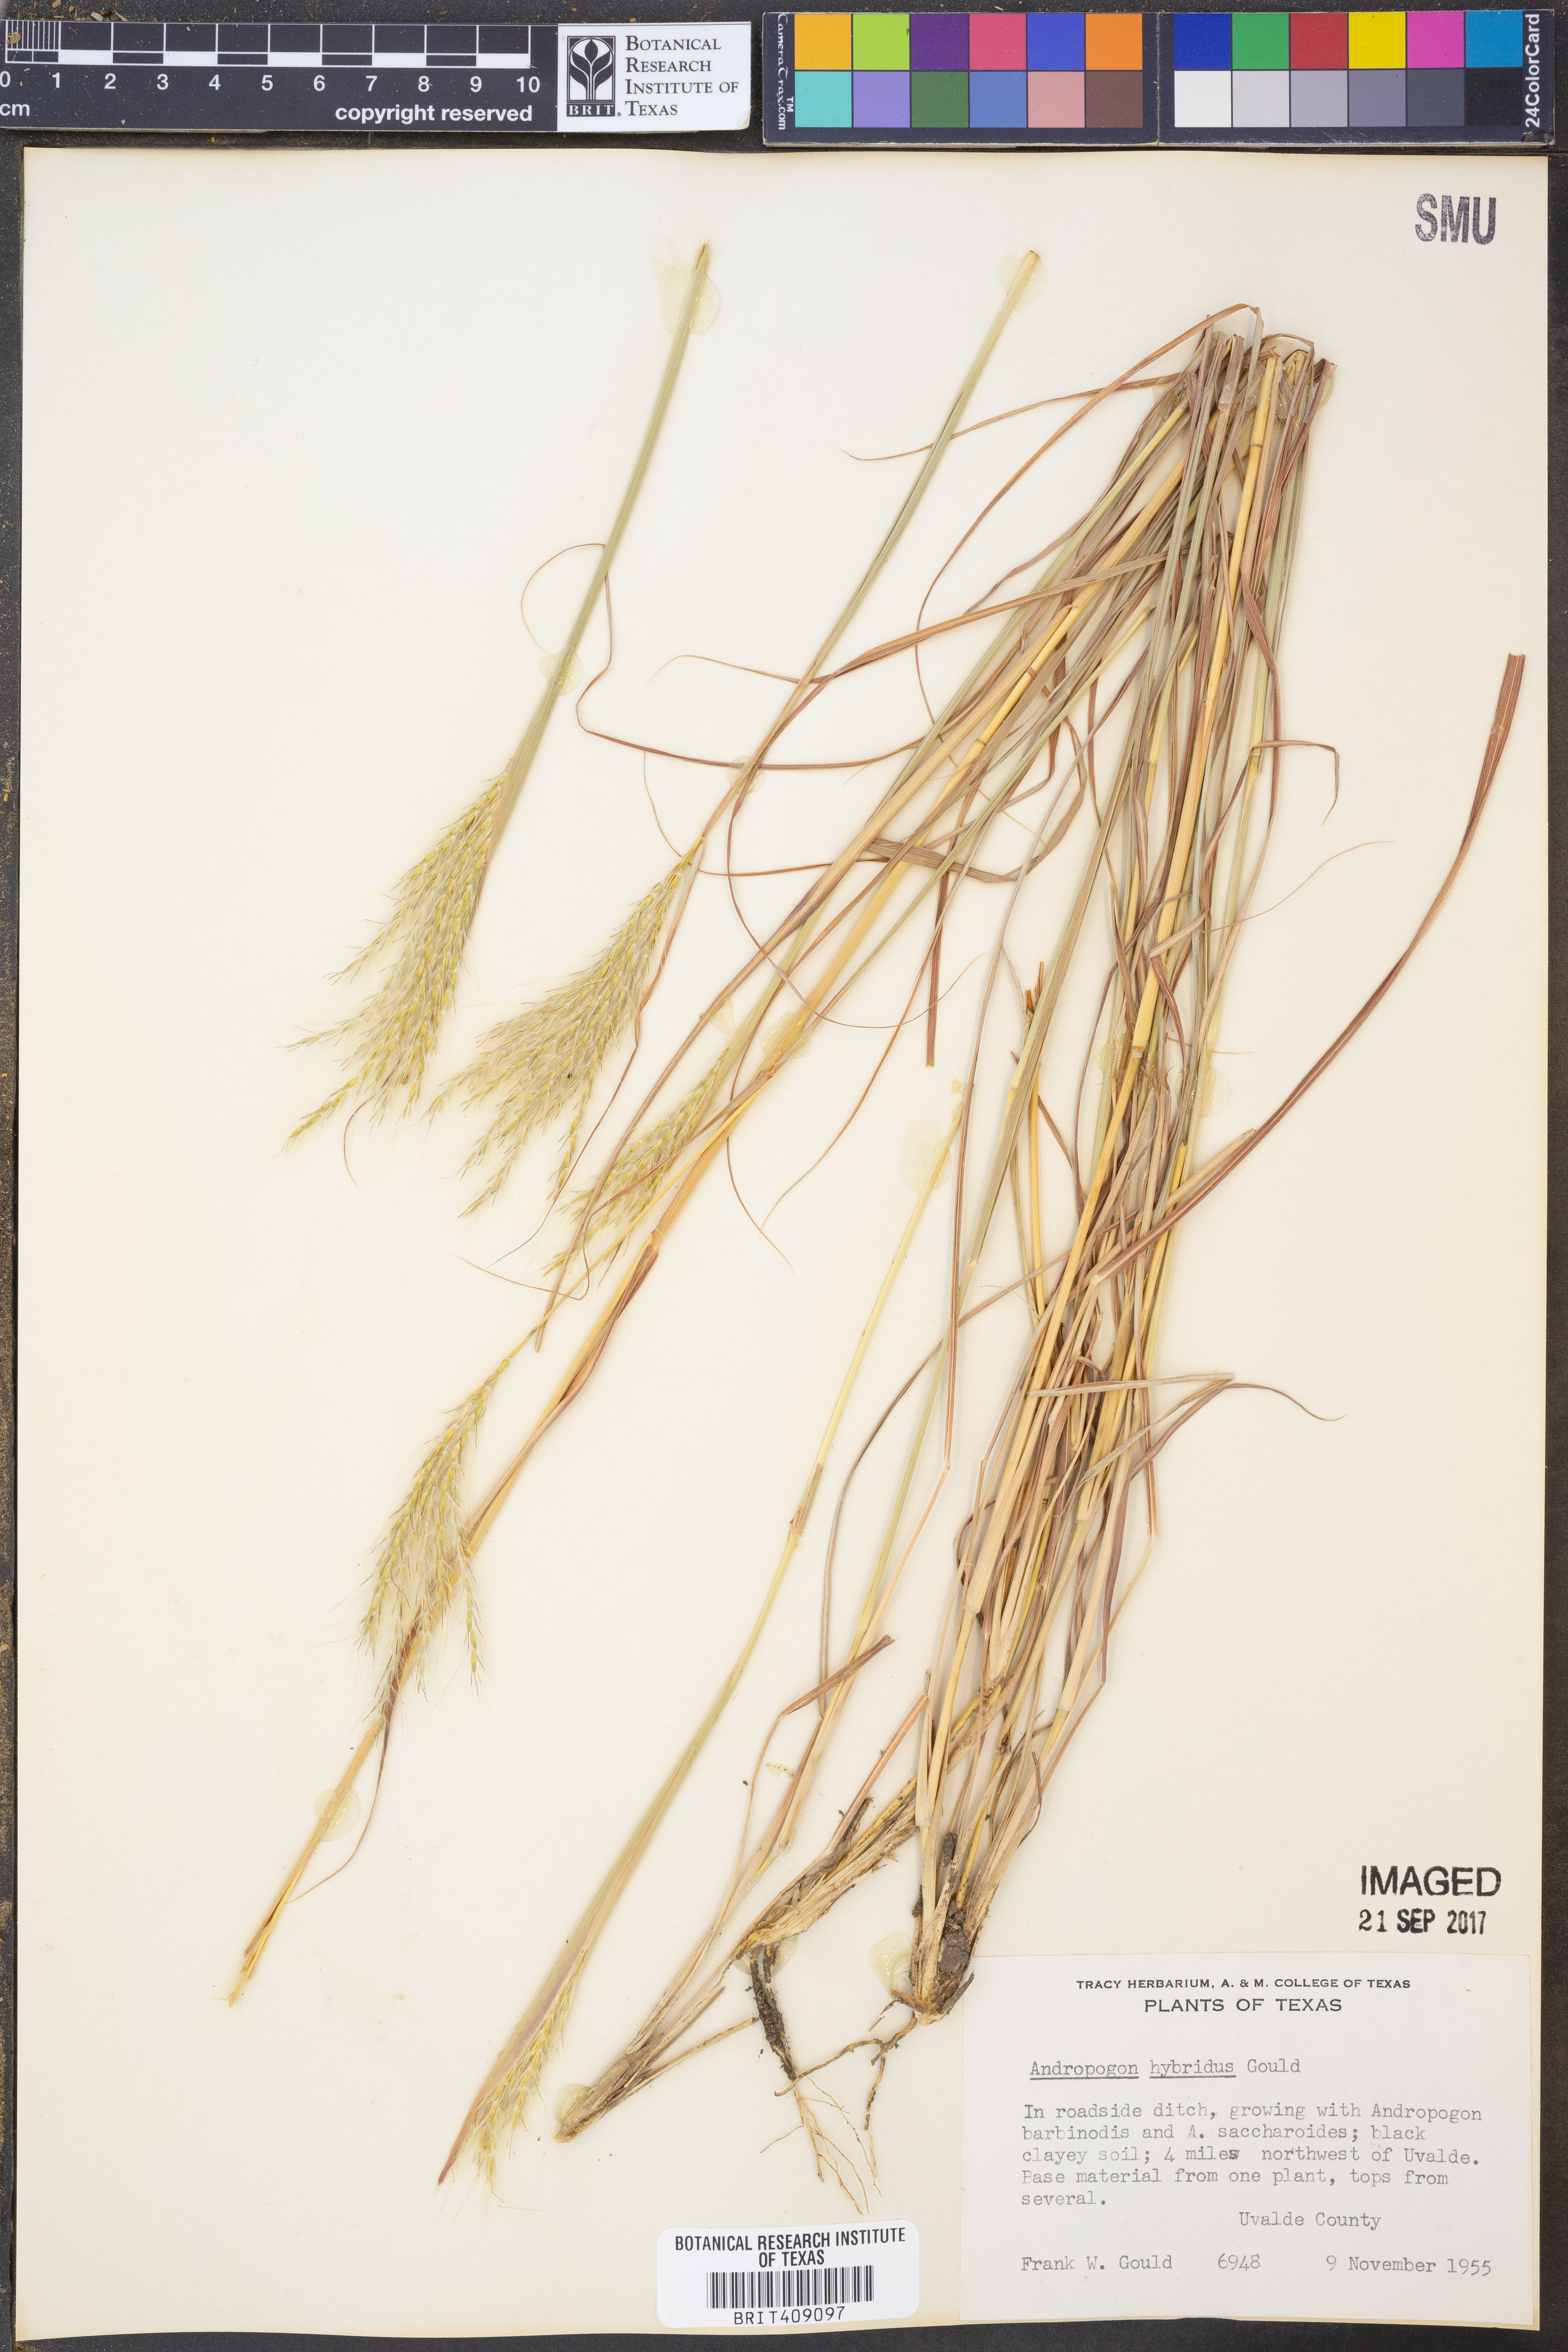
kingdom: Plantae
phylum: Tracheophyta
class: Liliopsida
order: Poales
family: Poaceae
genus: Bothriochloa
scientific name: Bothriochloa hybrida
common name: Hybrid bluestem
